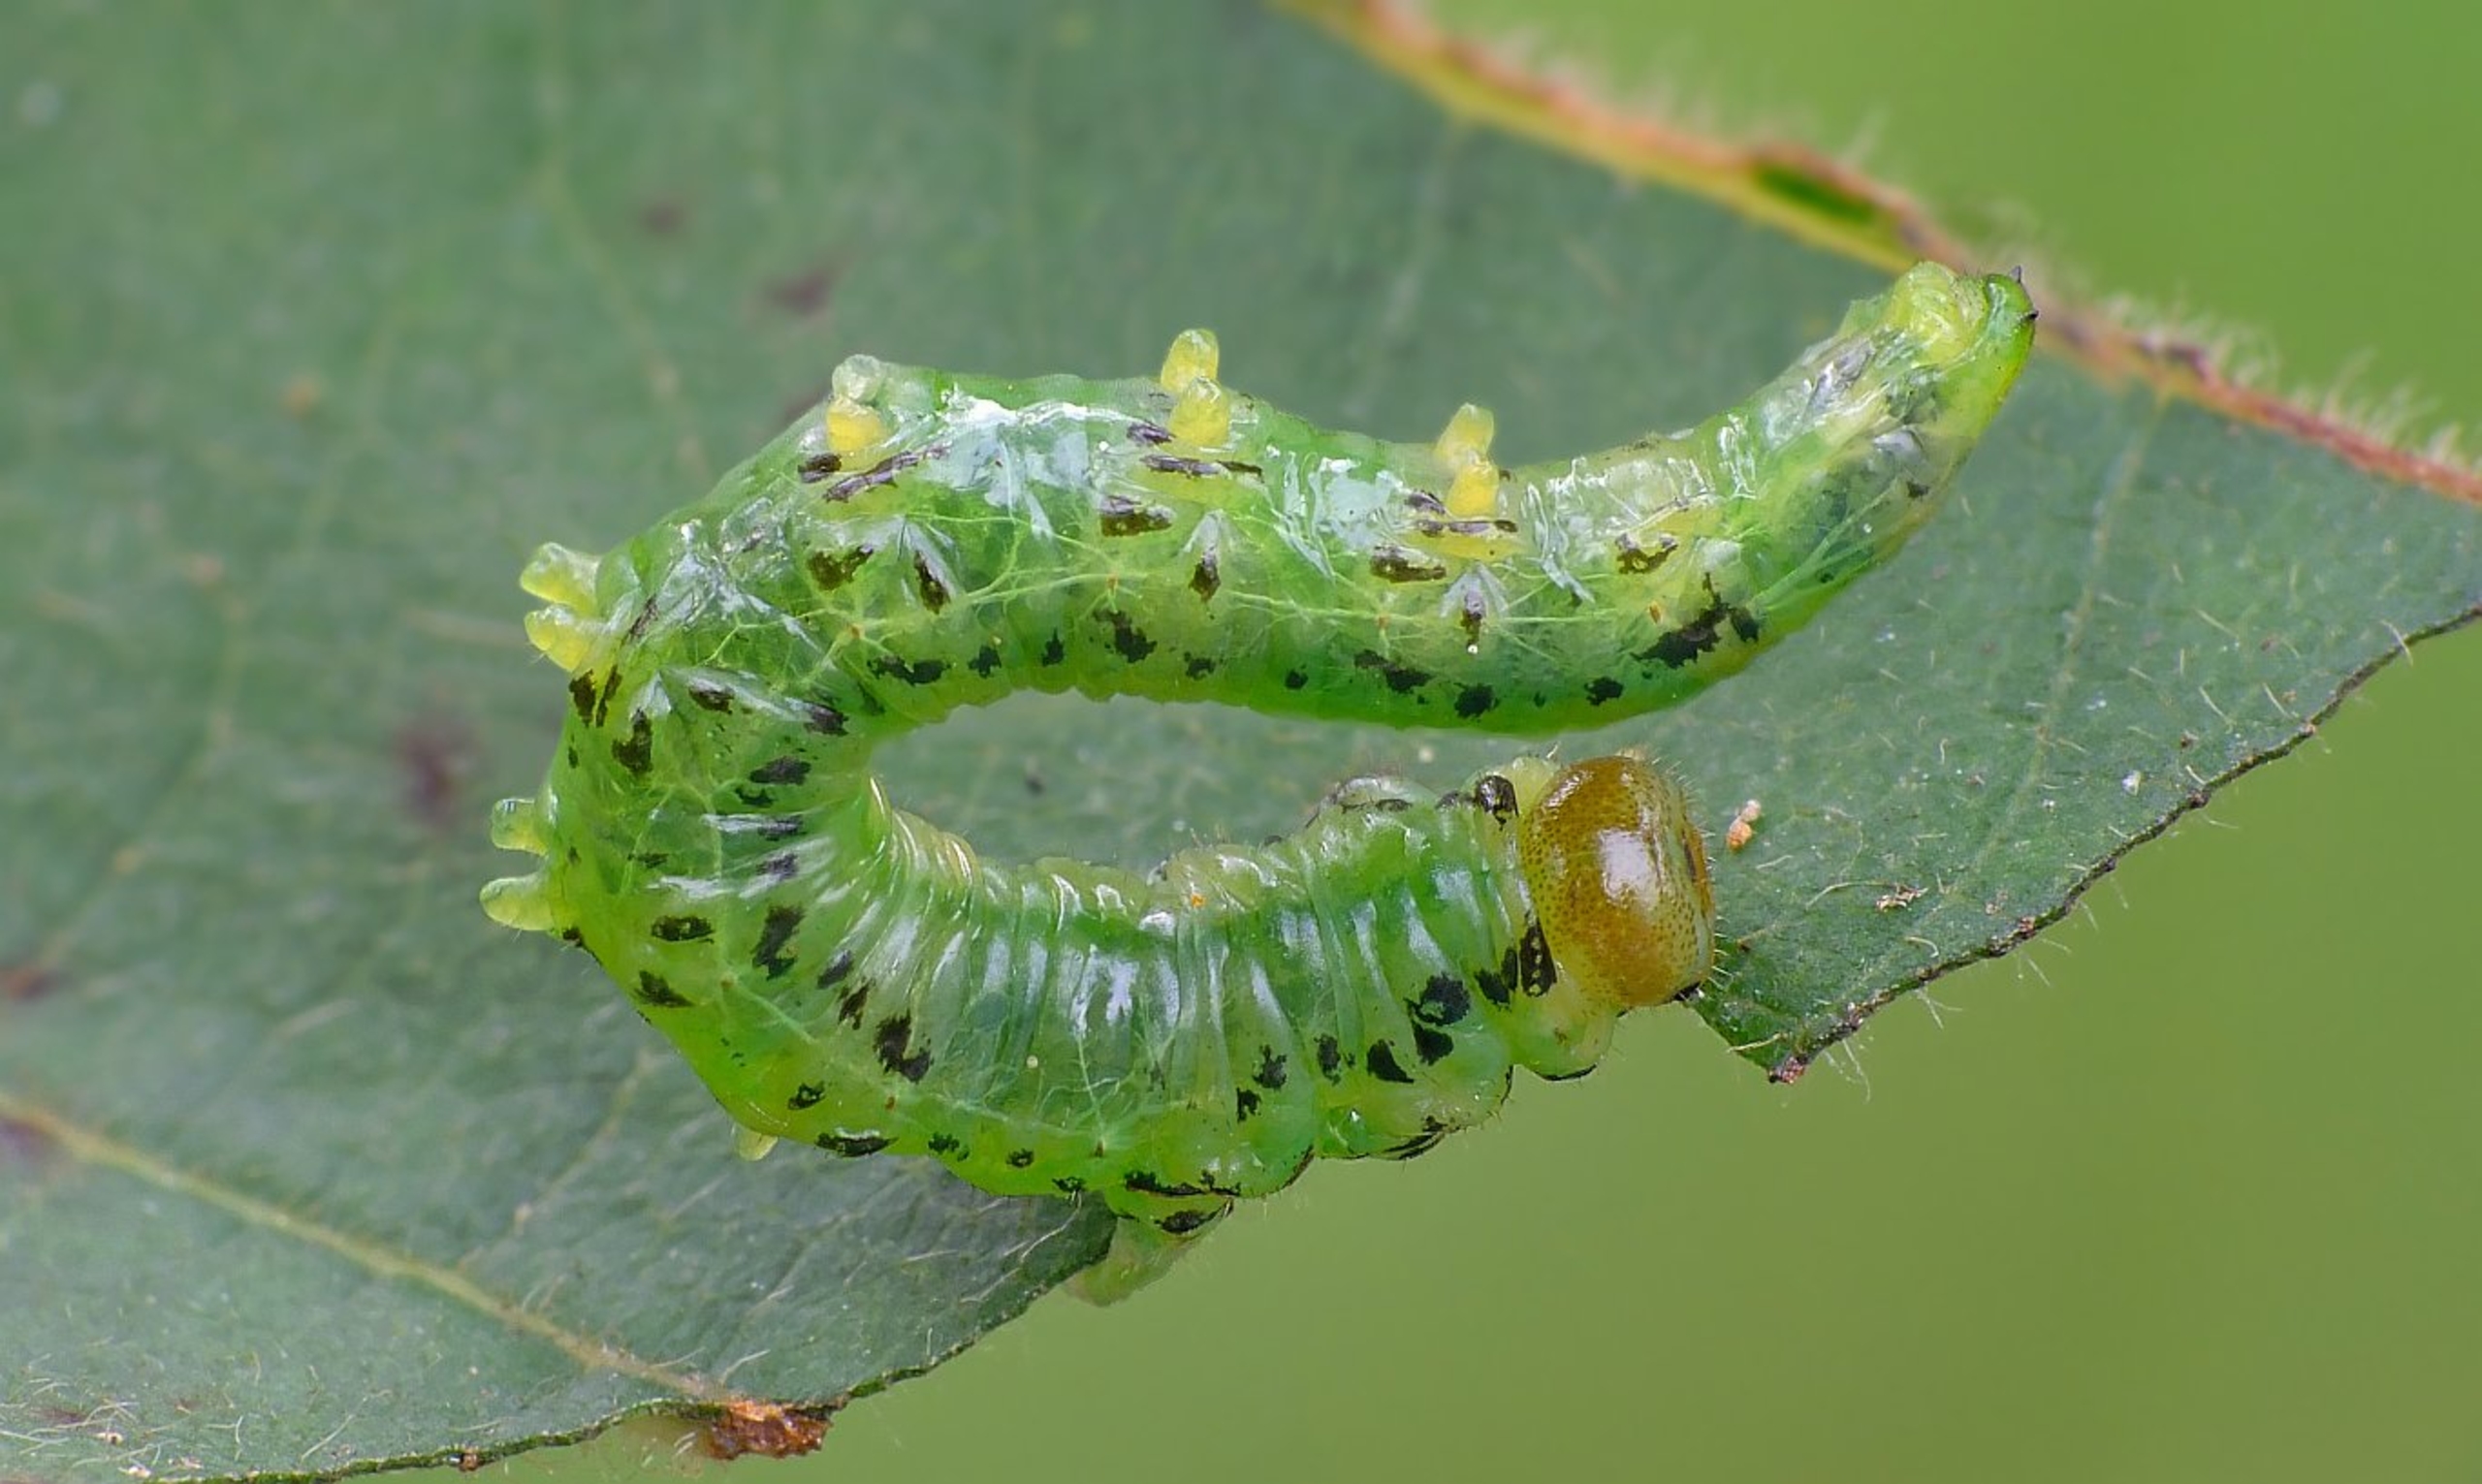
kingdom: Animalia
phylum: Arthropoda
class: Insecta
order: Hymenoptera
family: Tenthredinidae
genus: Craesus
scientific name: Craesus alniastri
